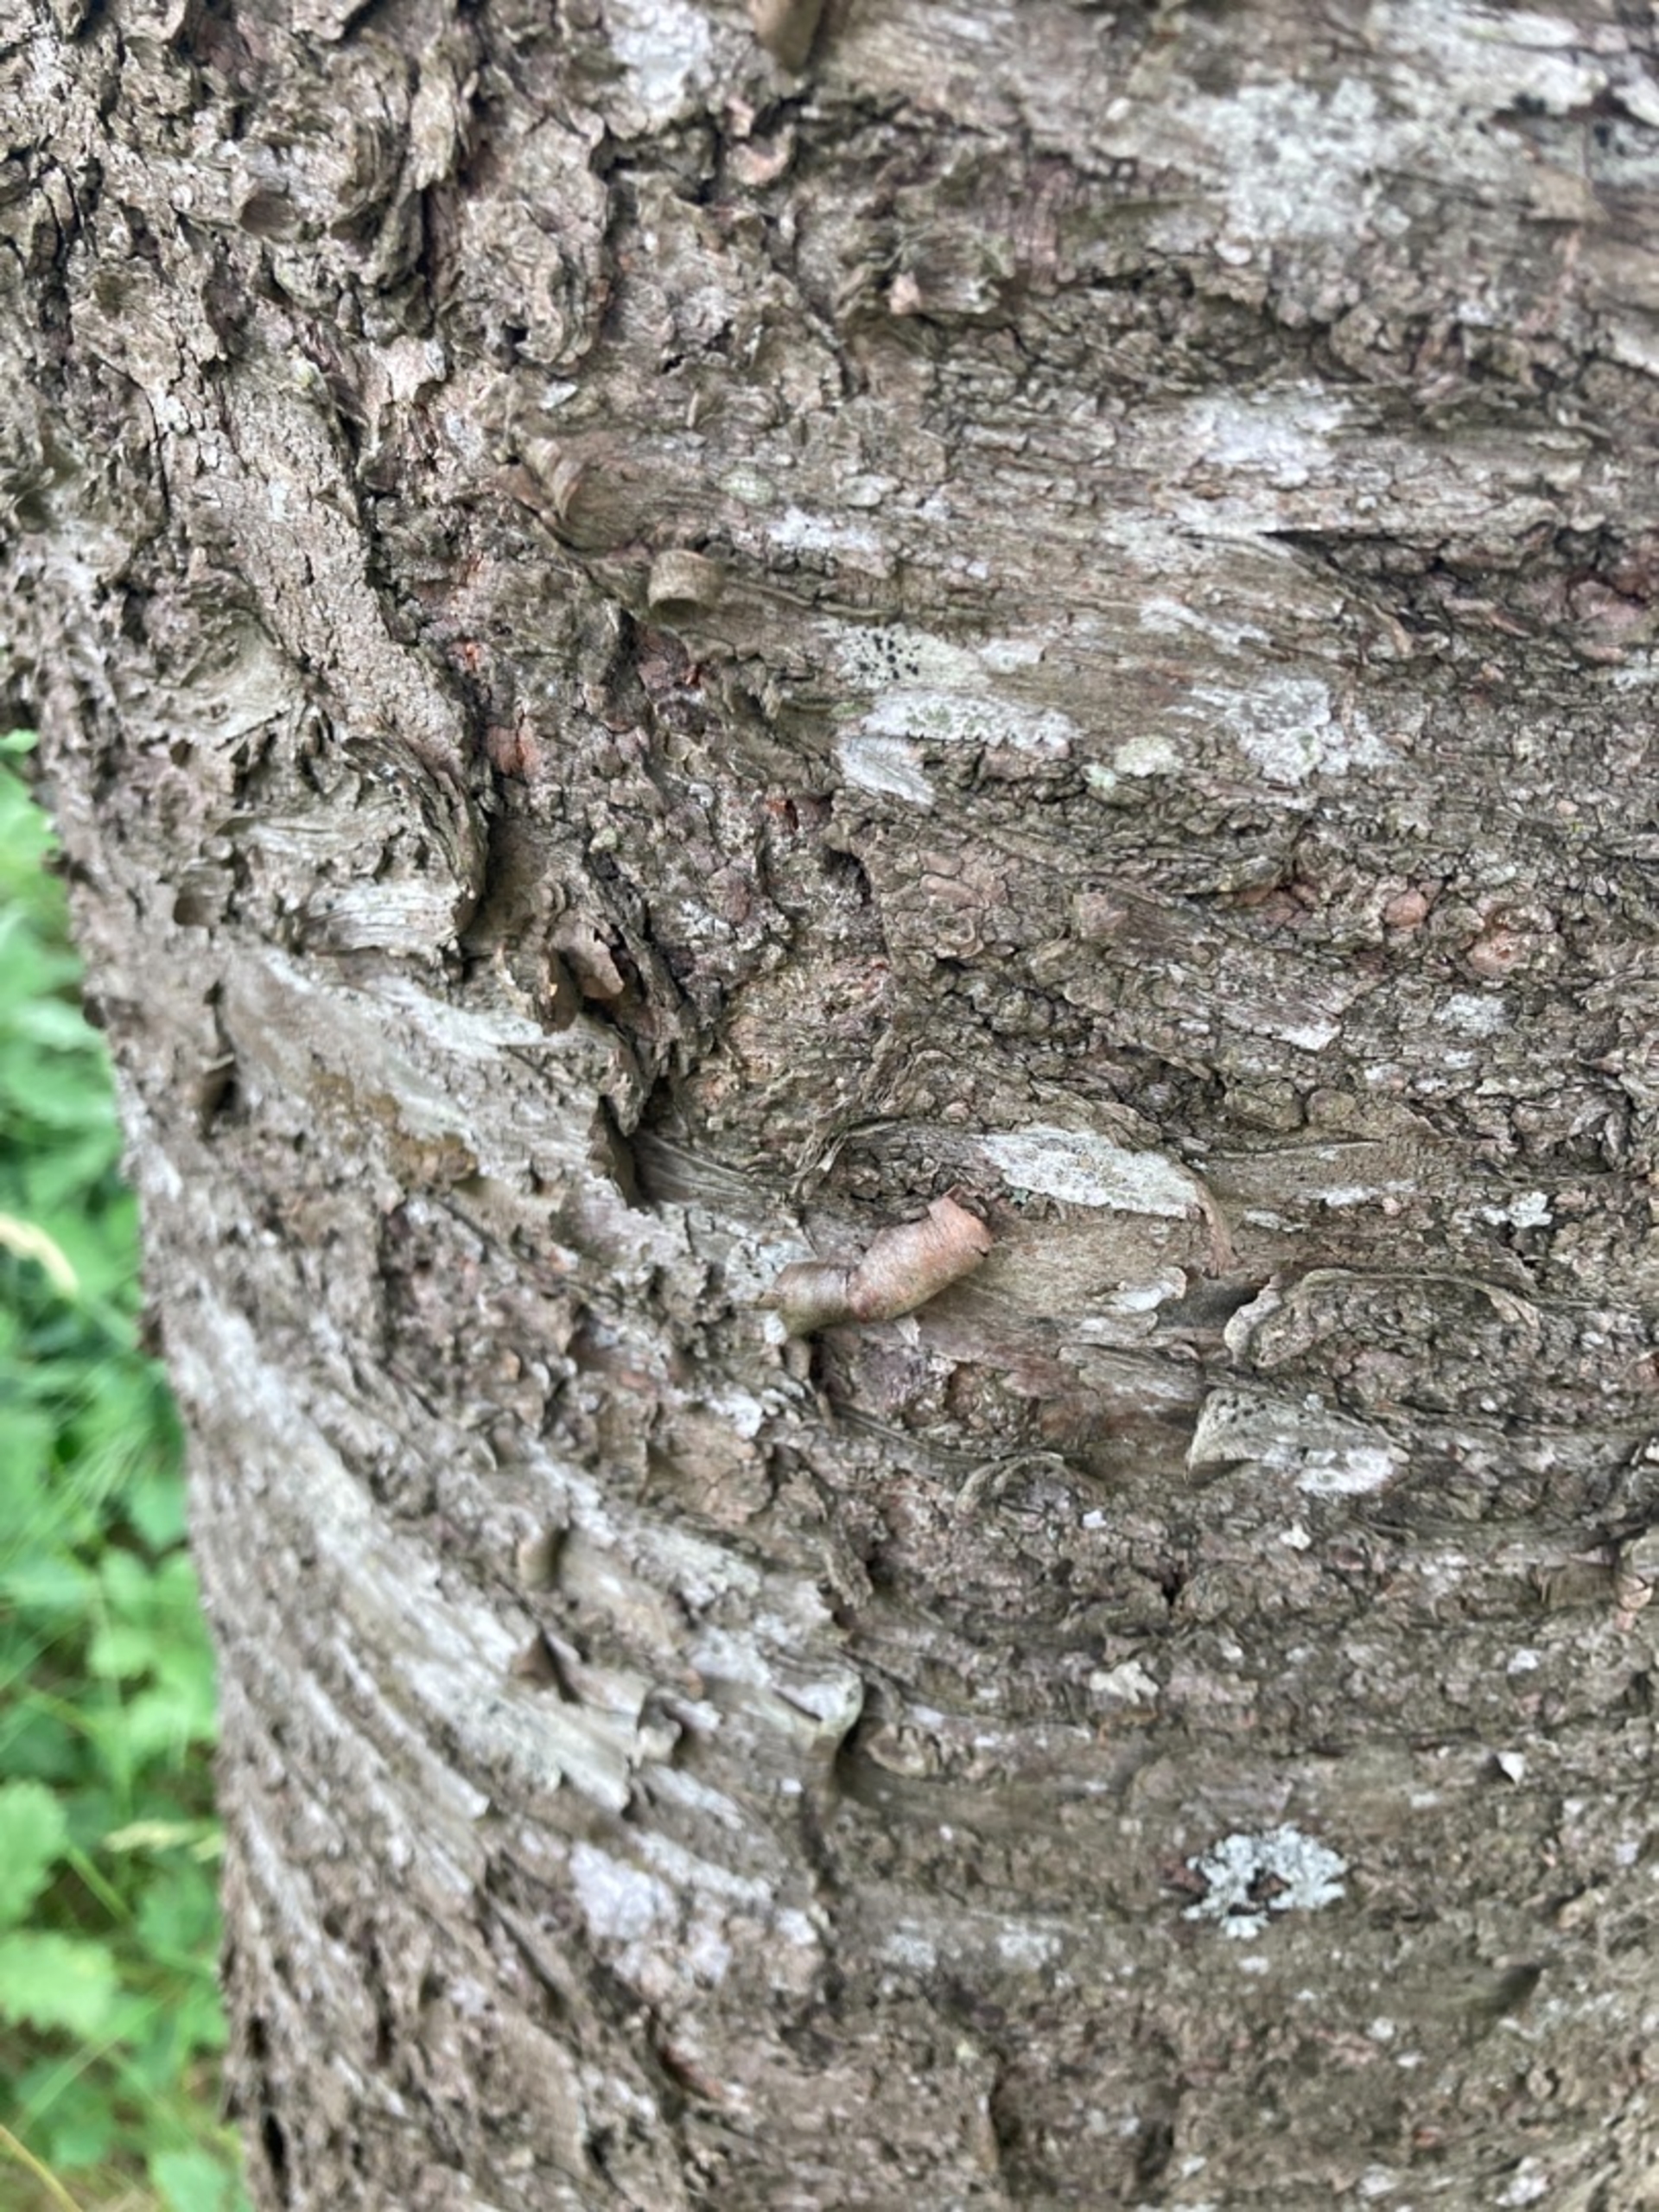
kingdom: Plantae
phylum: Tracheophyta
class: Magnoliopsida
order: Rosales
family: Rosaceae
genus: Prunus
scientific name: Prunus avium
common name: Fugle-kirsebær
